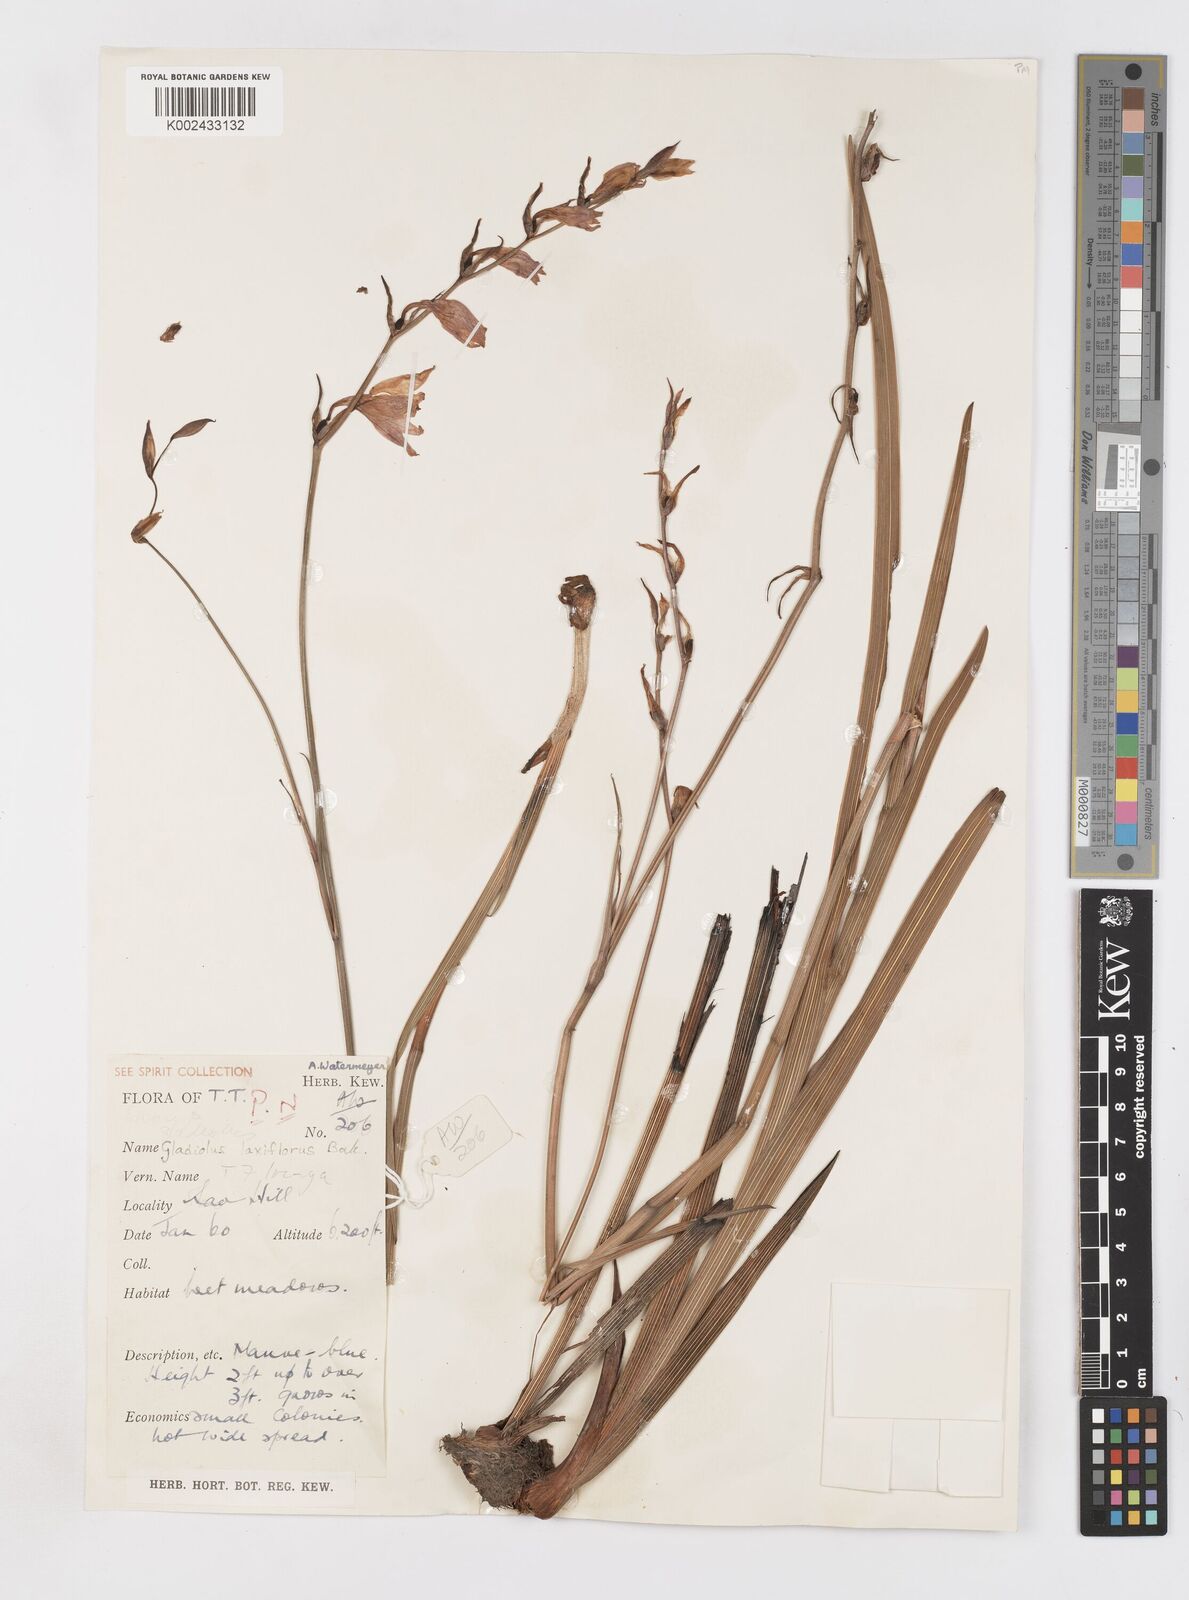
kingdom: Plantae
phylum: Tracheophyta
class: Liliopsida
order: Asparagales
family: Iridaceae
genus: Gladiolus
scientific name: Gladiolus laxiflorus
